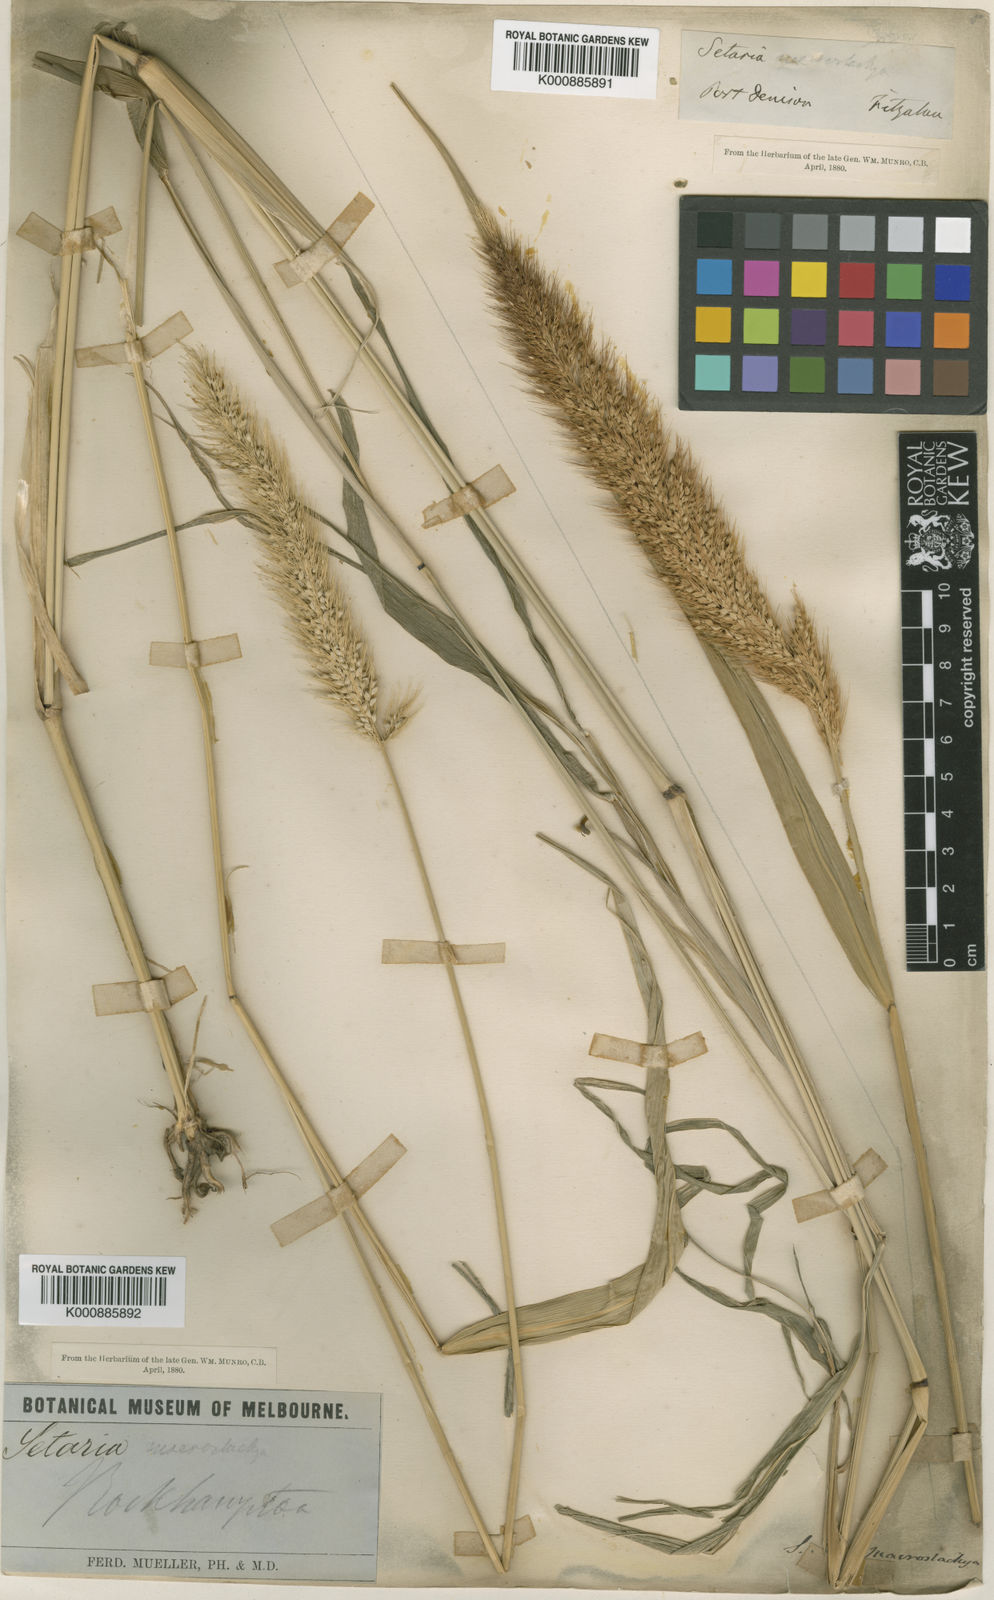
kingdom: Plantae
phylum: Tracheophyta
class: Liliopsida
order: Poales
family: Poaceae
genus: Setaria
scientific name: Setaria australiensis
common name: Scrub pigeon grass
